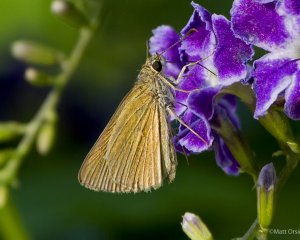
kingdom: Animalia
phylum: Arthropoda
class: Insecta
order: Lepidoptera
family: Hesperiidae
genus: Nastra
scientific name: Nastra julia
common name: Julia's Skipper
